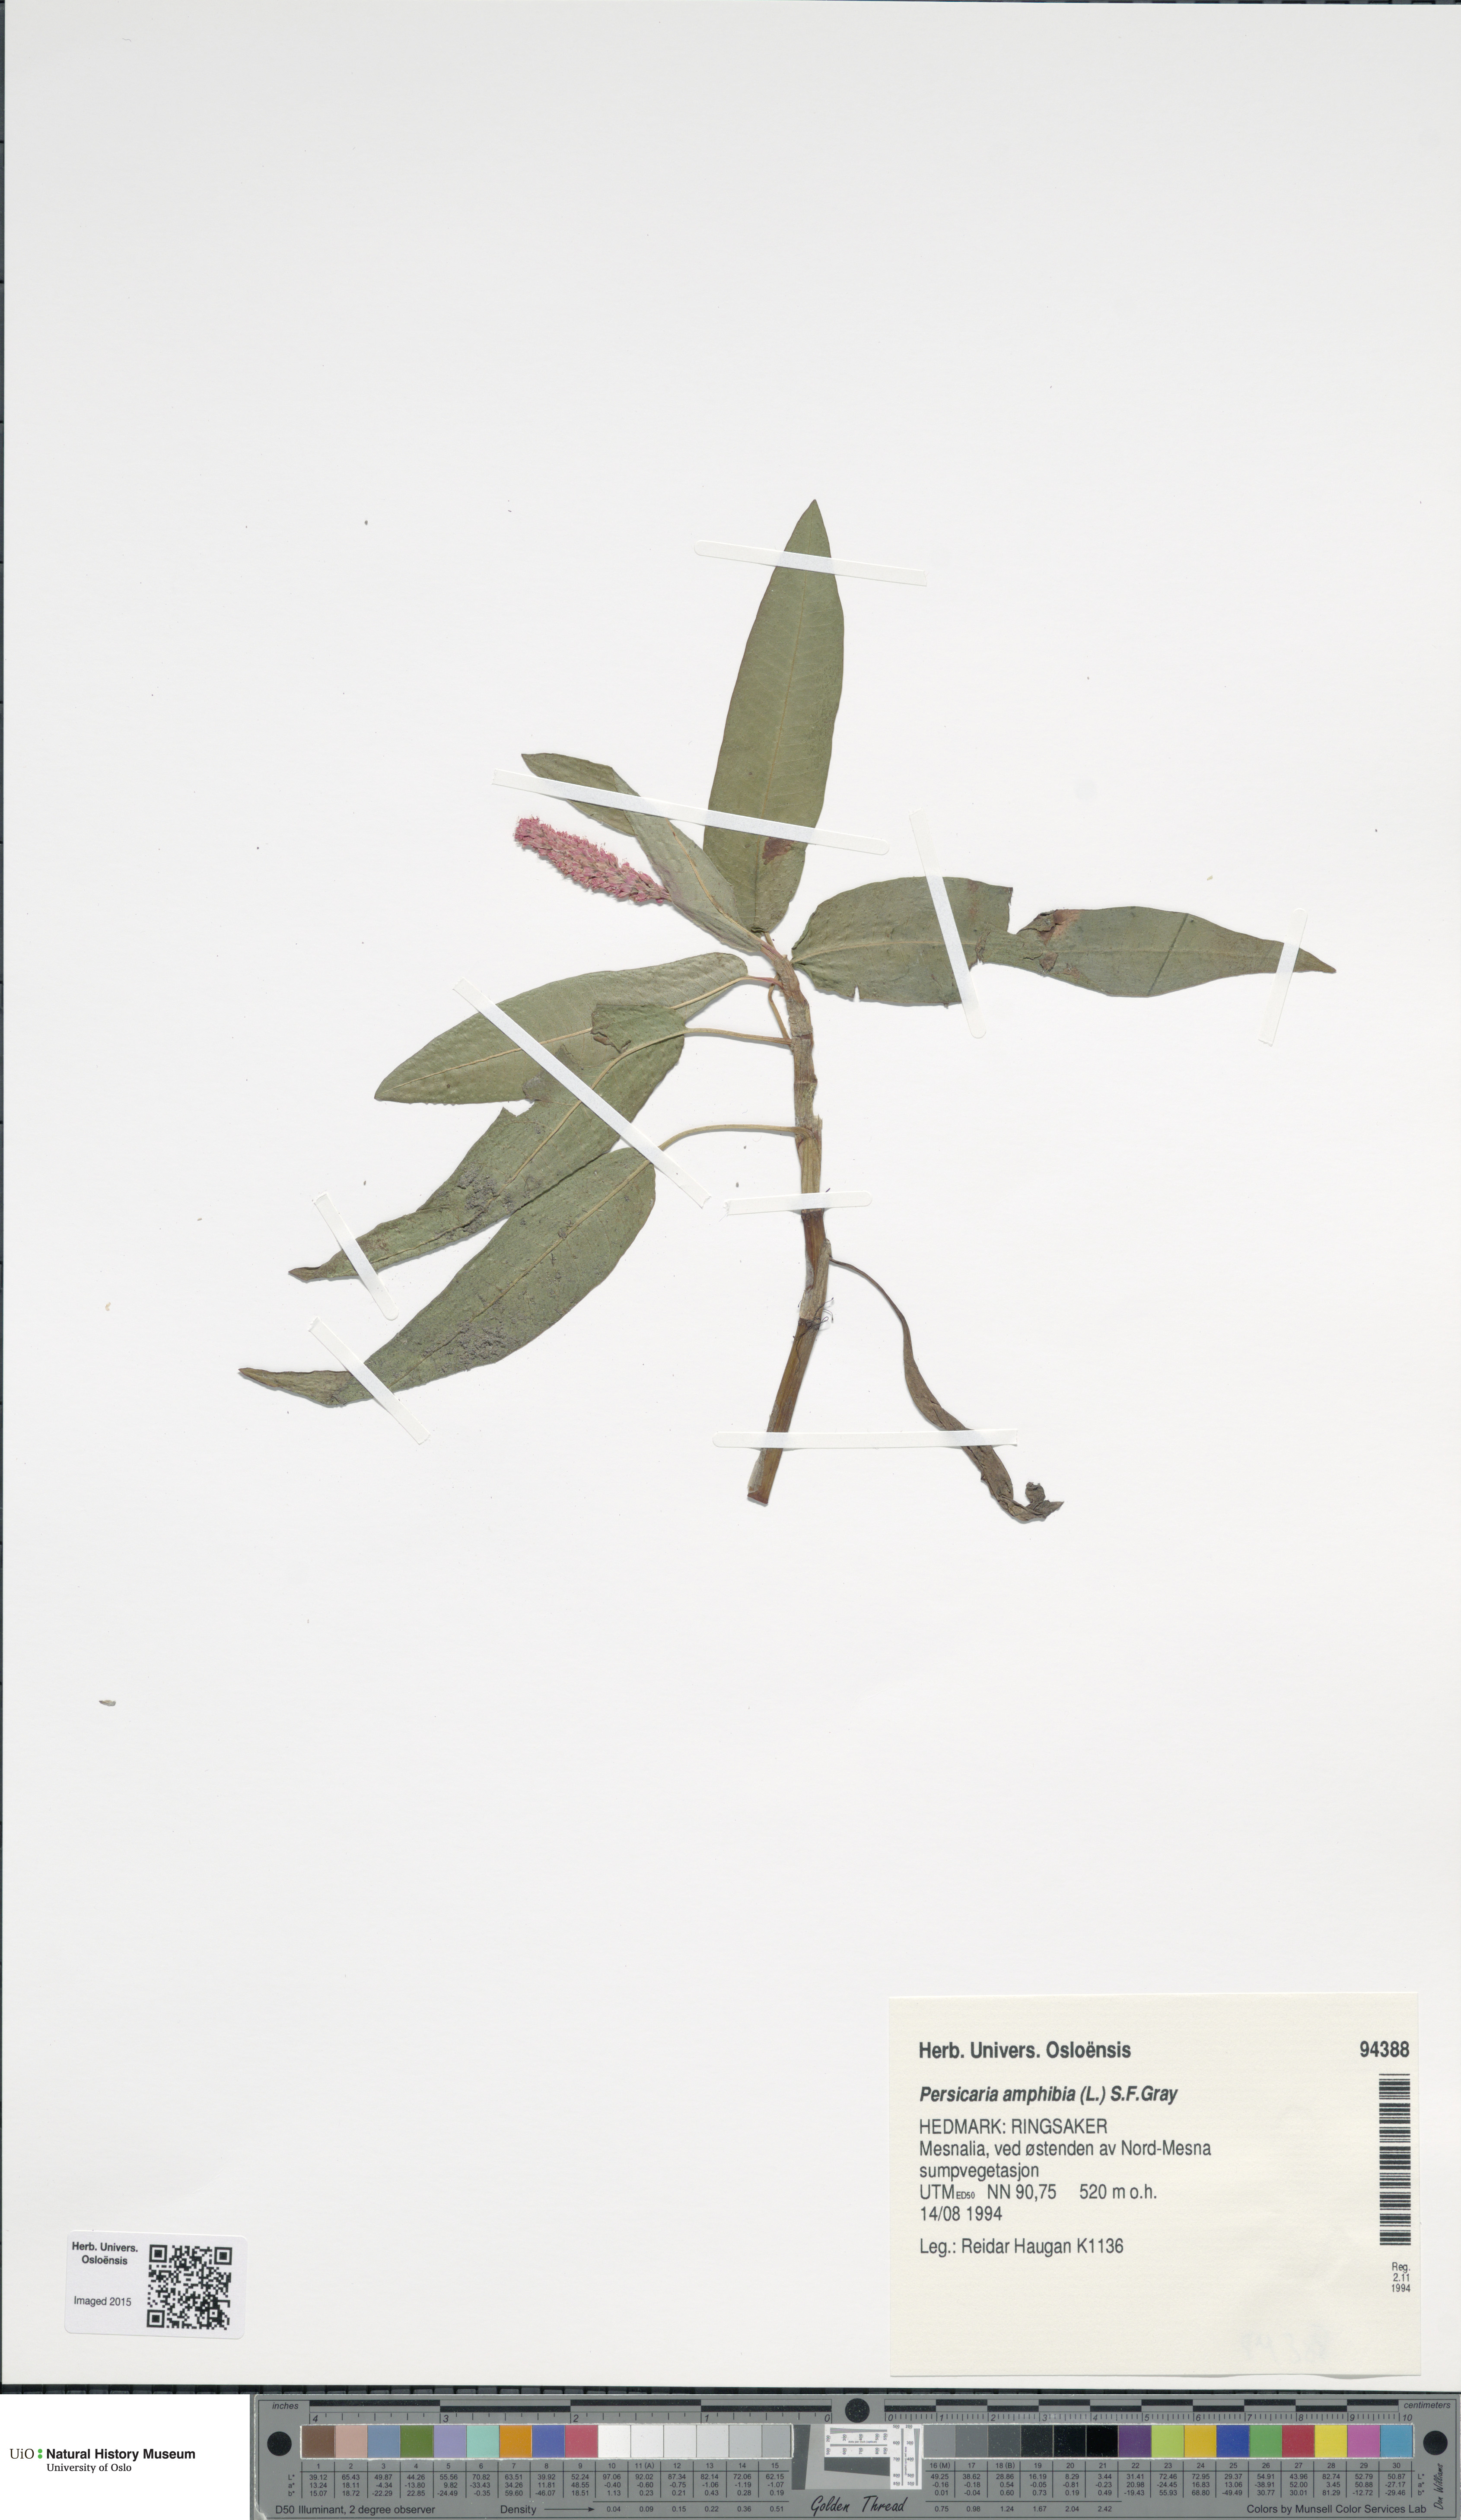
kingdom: Plantae
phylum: Tracheophyta
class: Magnoliopsida
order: Caryophyllales
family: Polygonaceae
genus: Persicaria
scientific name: Persicaria amphibia
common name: Amphibious bistort
